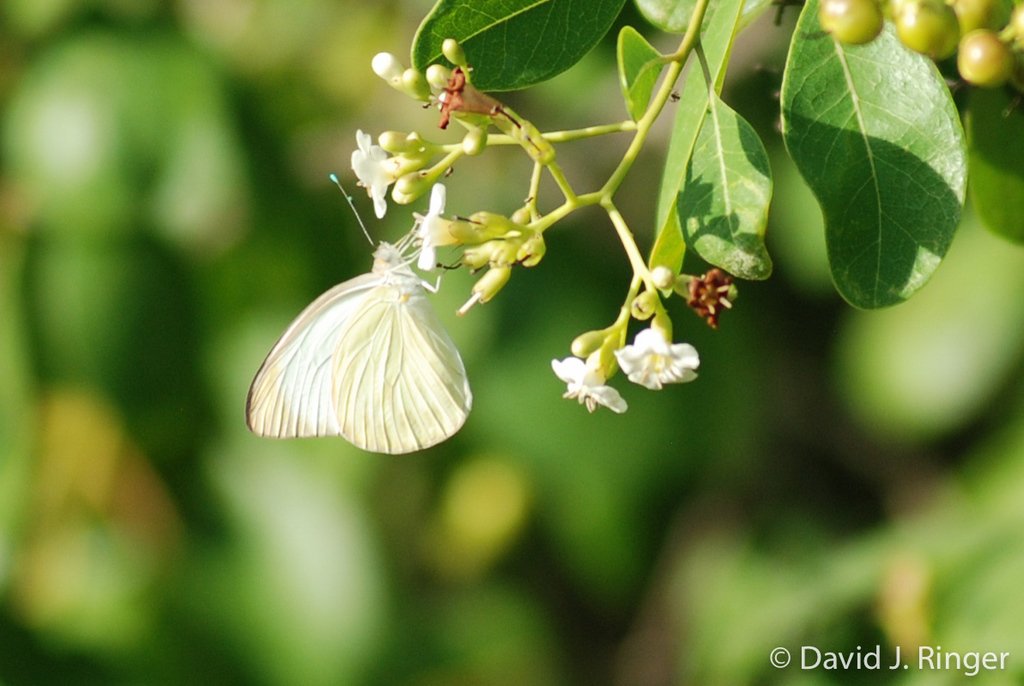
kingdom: Animalia
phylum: Arthropoda
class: Insecta
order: Lepidoptera
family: Pieridae
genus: Ascia
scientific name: Ascia monuste
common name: Great Southern White
